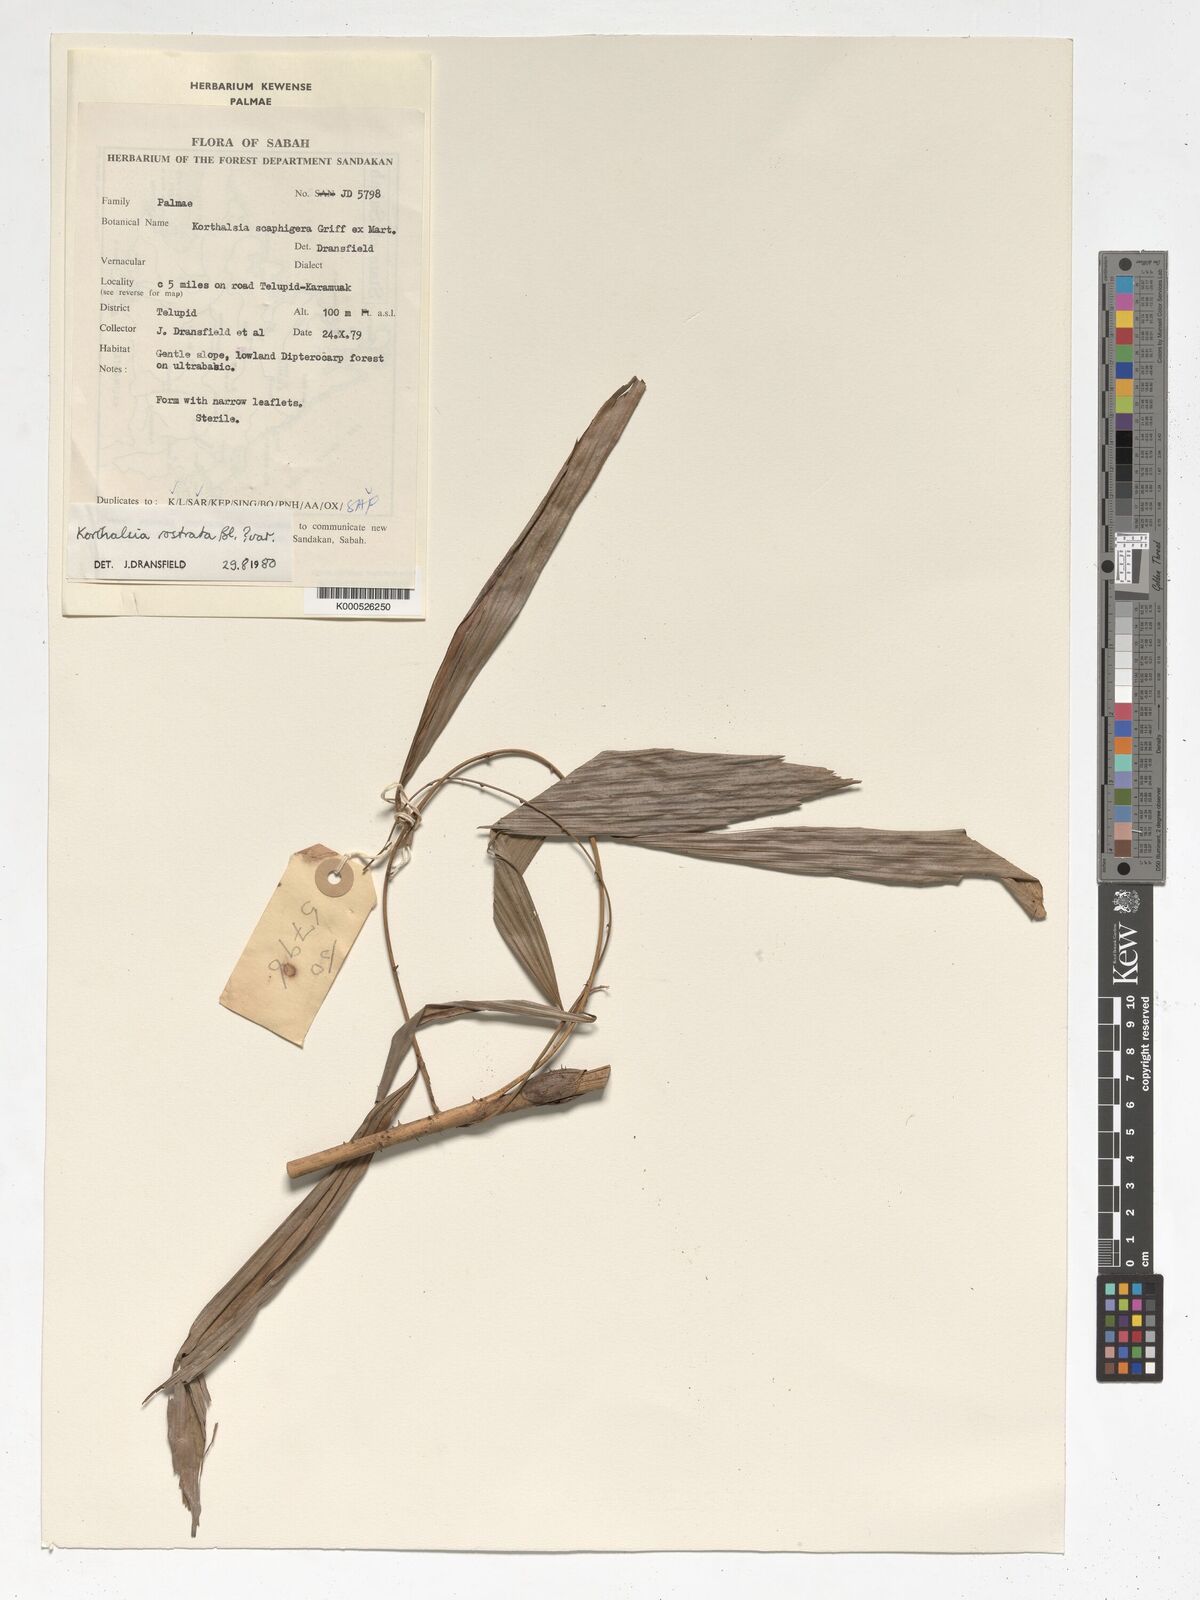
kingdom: Plantae
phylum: Tracheophyta
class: Liliopsida
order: Arecales
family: Arecaceae
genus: Korthalsia
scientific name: Korthalsia rostrata
